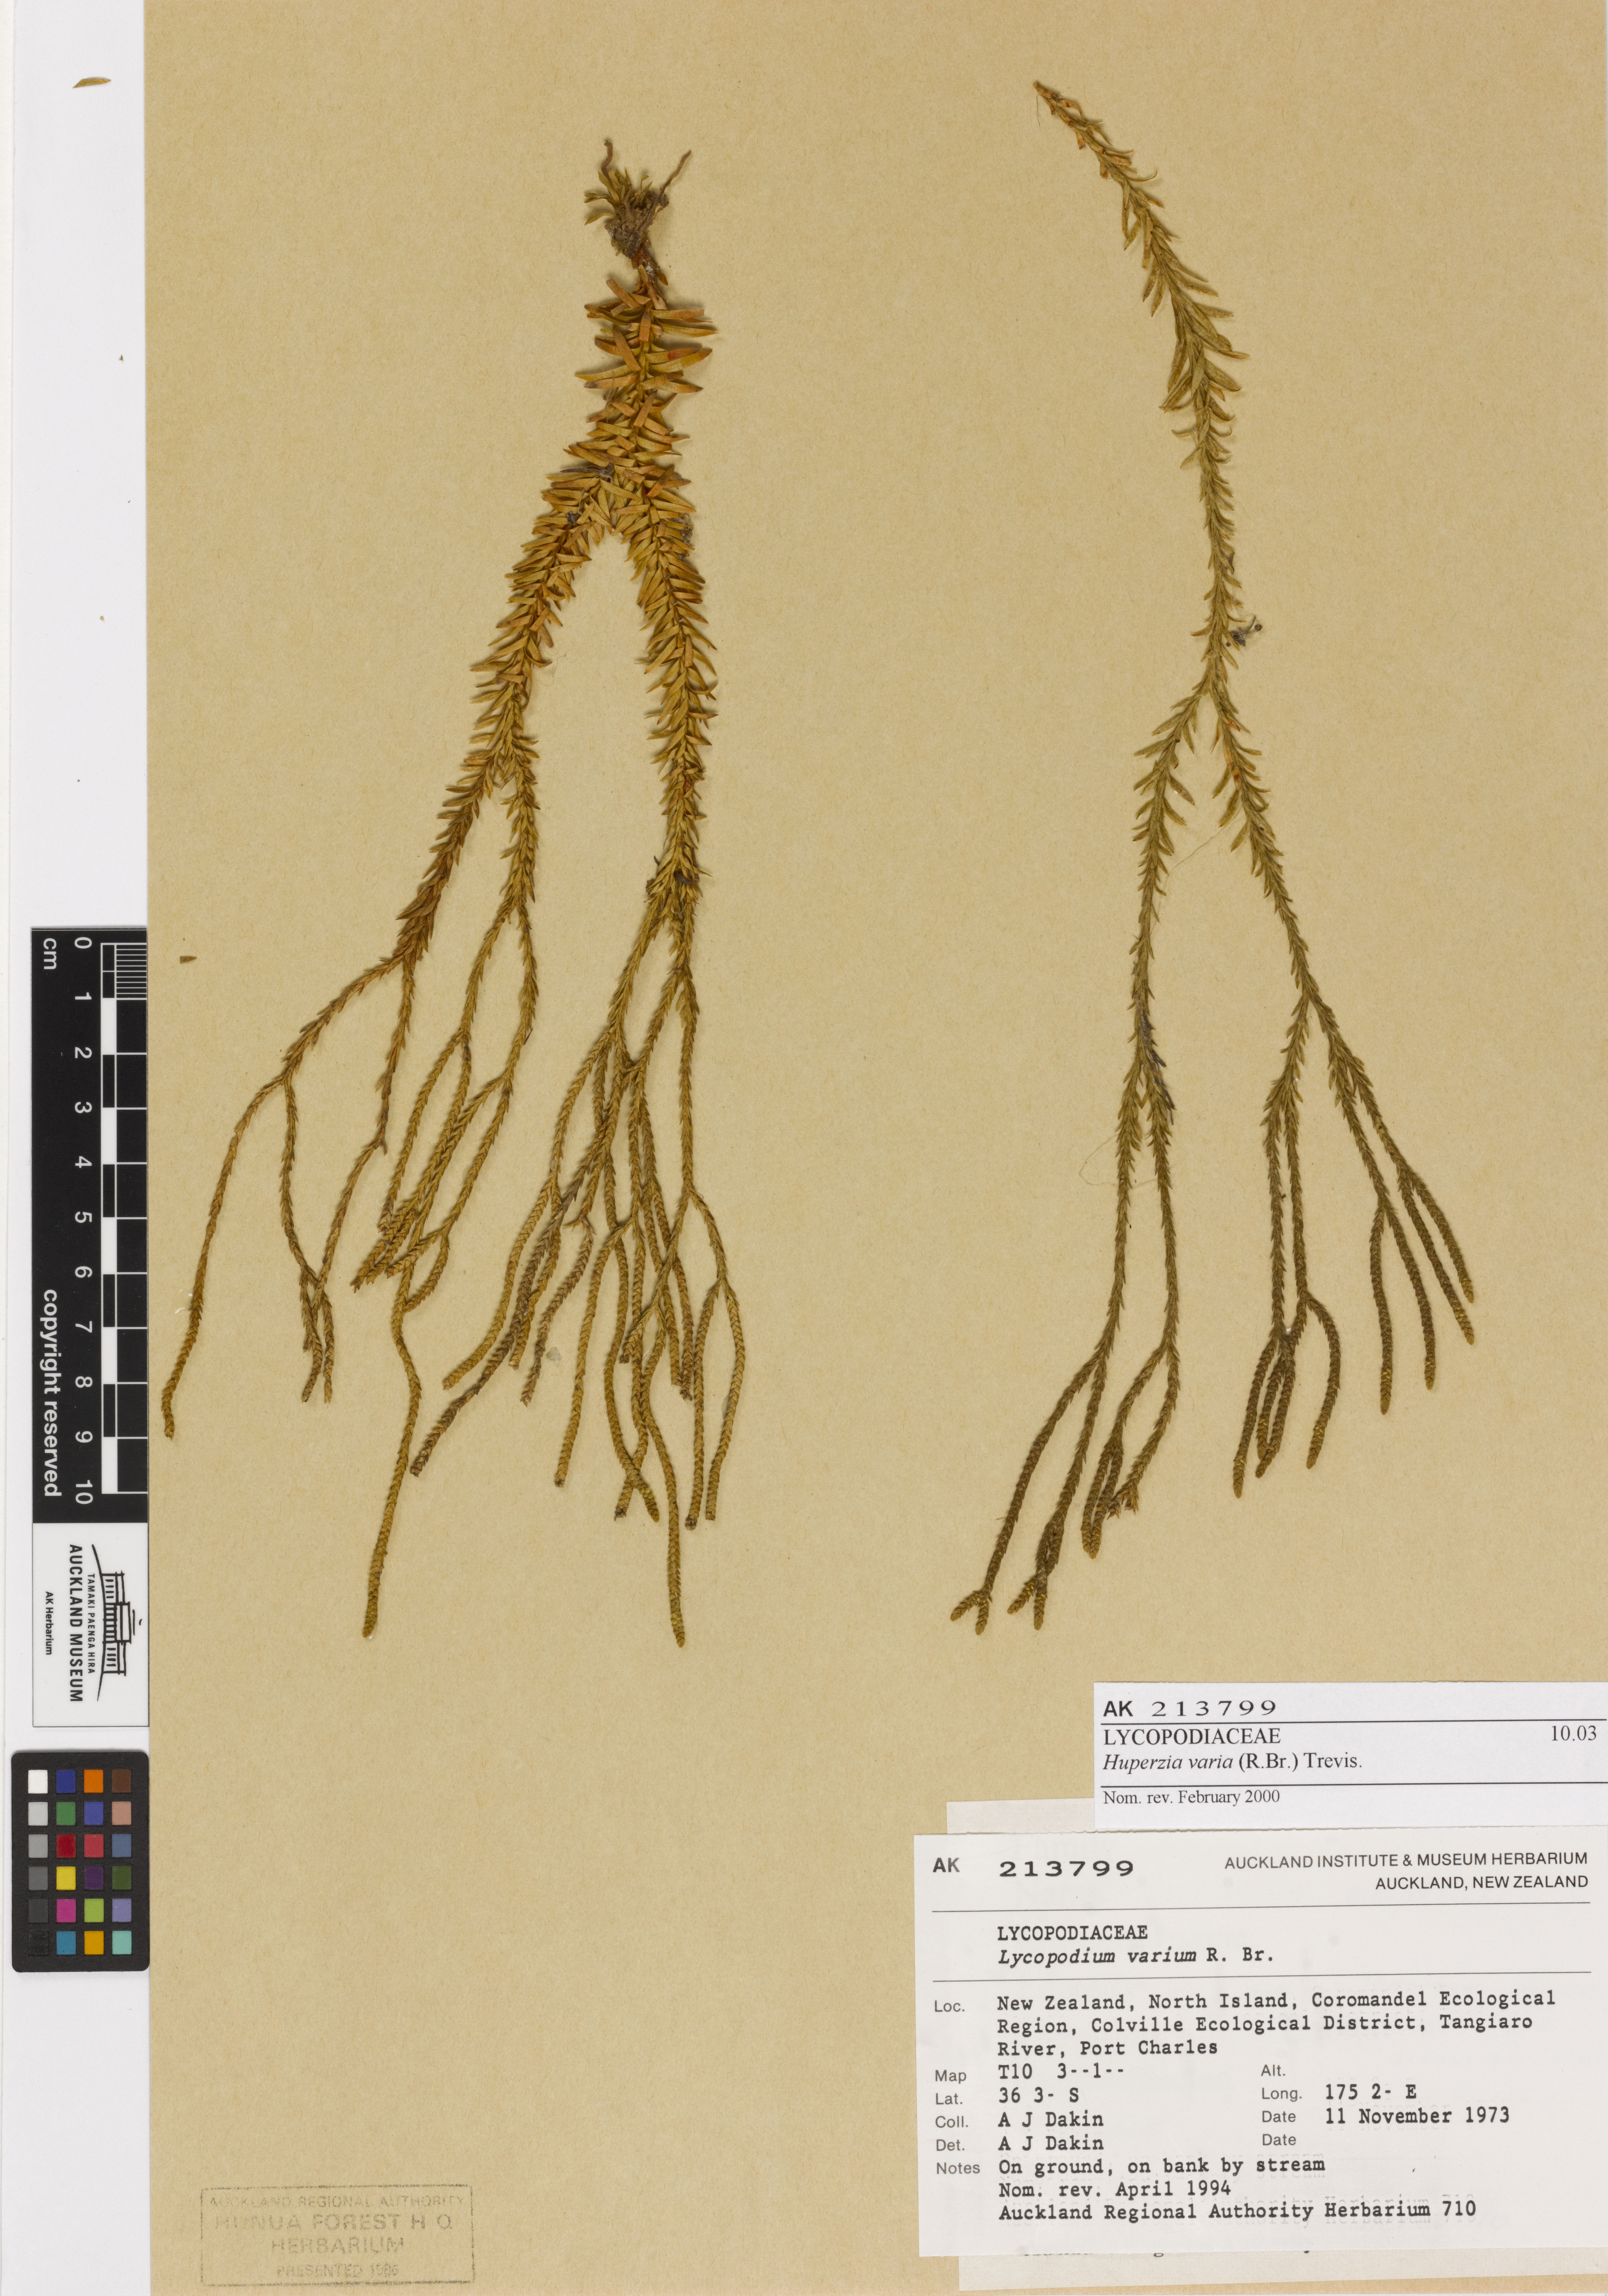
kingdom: Plantae
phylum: Tracheophyta
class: Lycopodiopsida
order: Lycopodiales
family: Lycopodiaceae
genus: Phlegmariurus
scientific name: Phlegmariurus billardierei
